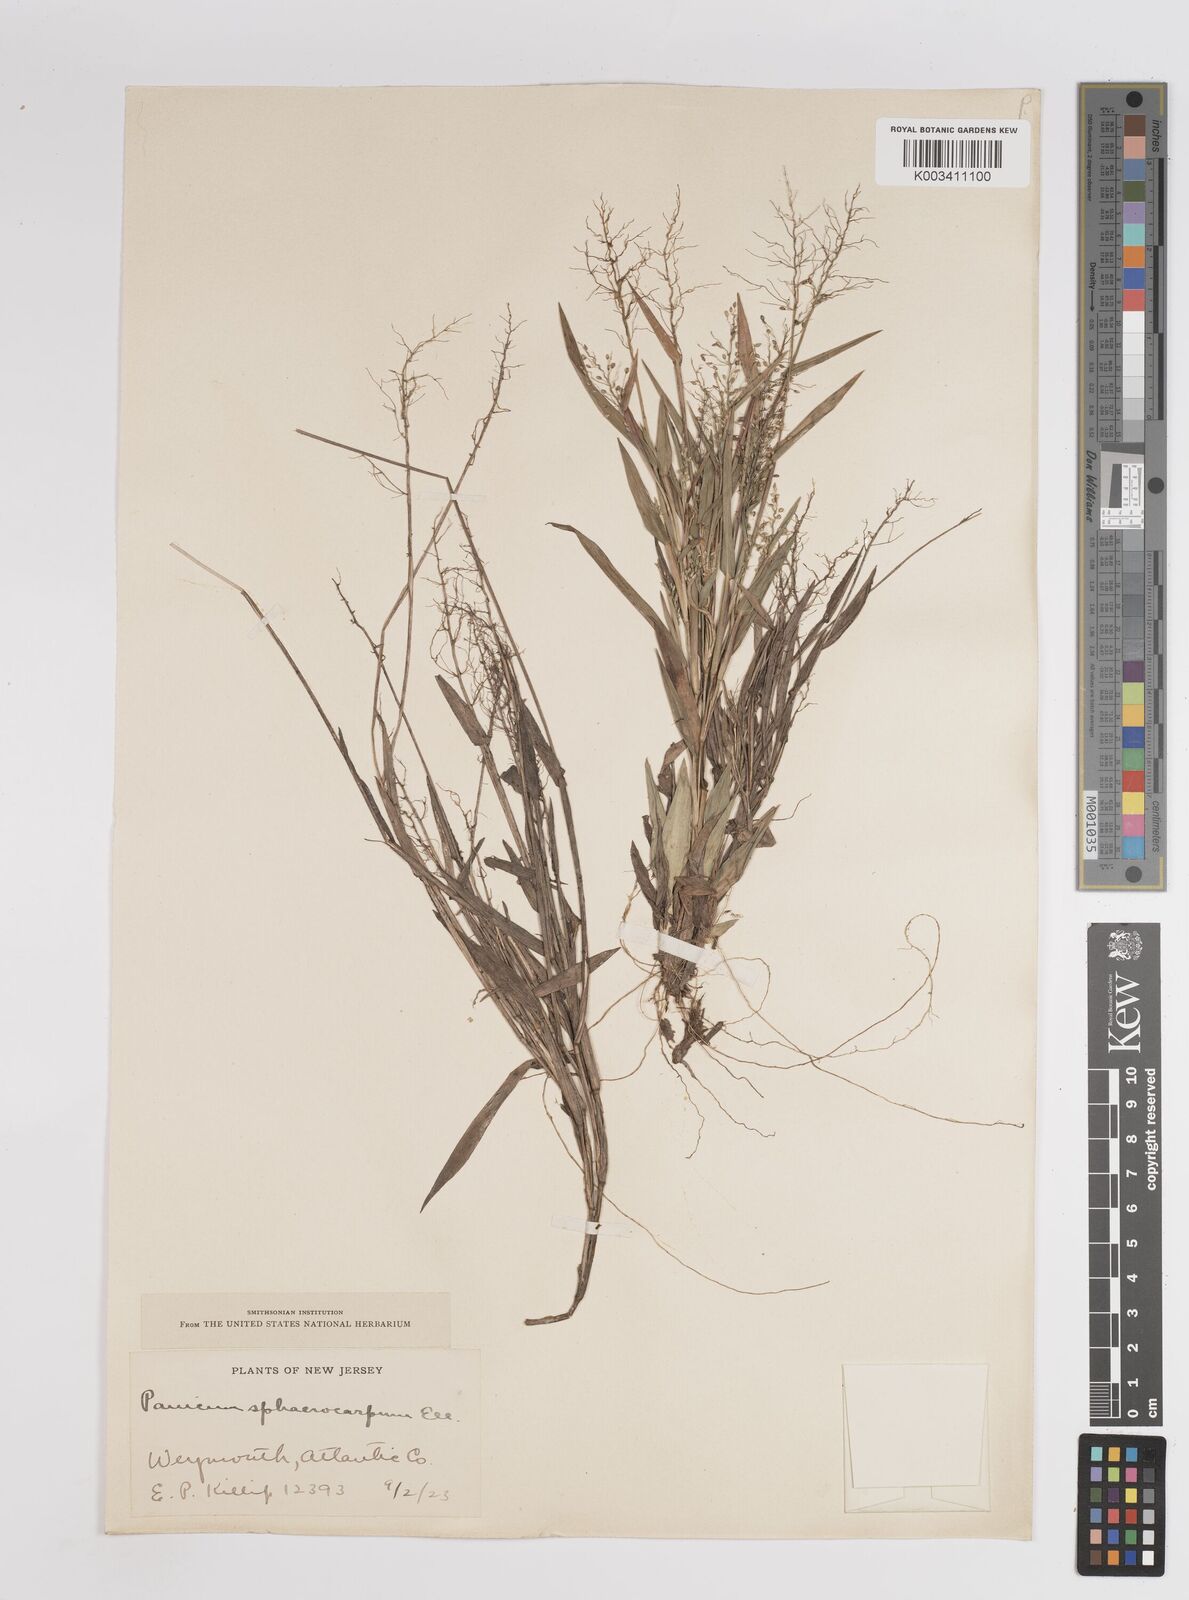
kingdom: Plantae
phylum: Tracheophyta
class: Liliopsida
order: Poales
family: Poaceae
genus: Dichanthelium
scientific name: Dichanthelium sphaerocarpon
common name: Round-fruited panicgrass
